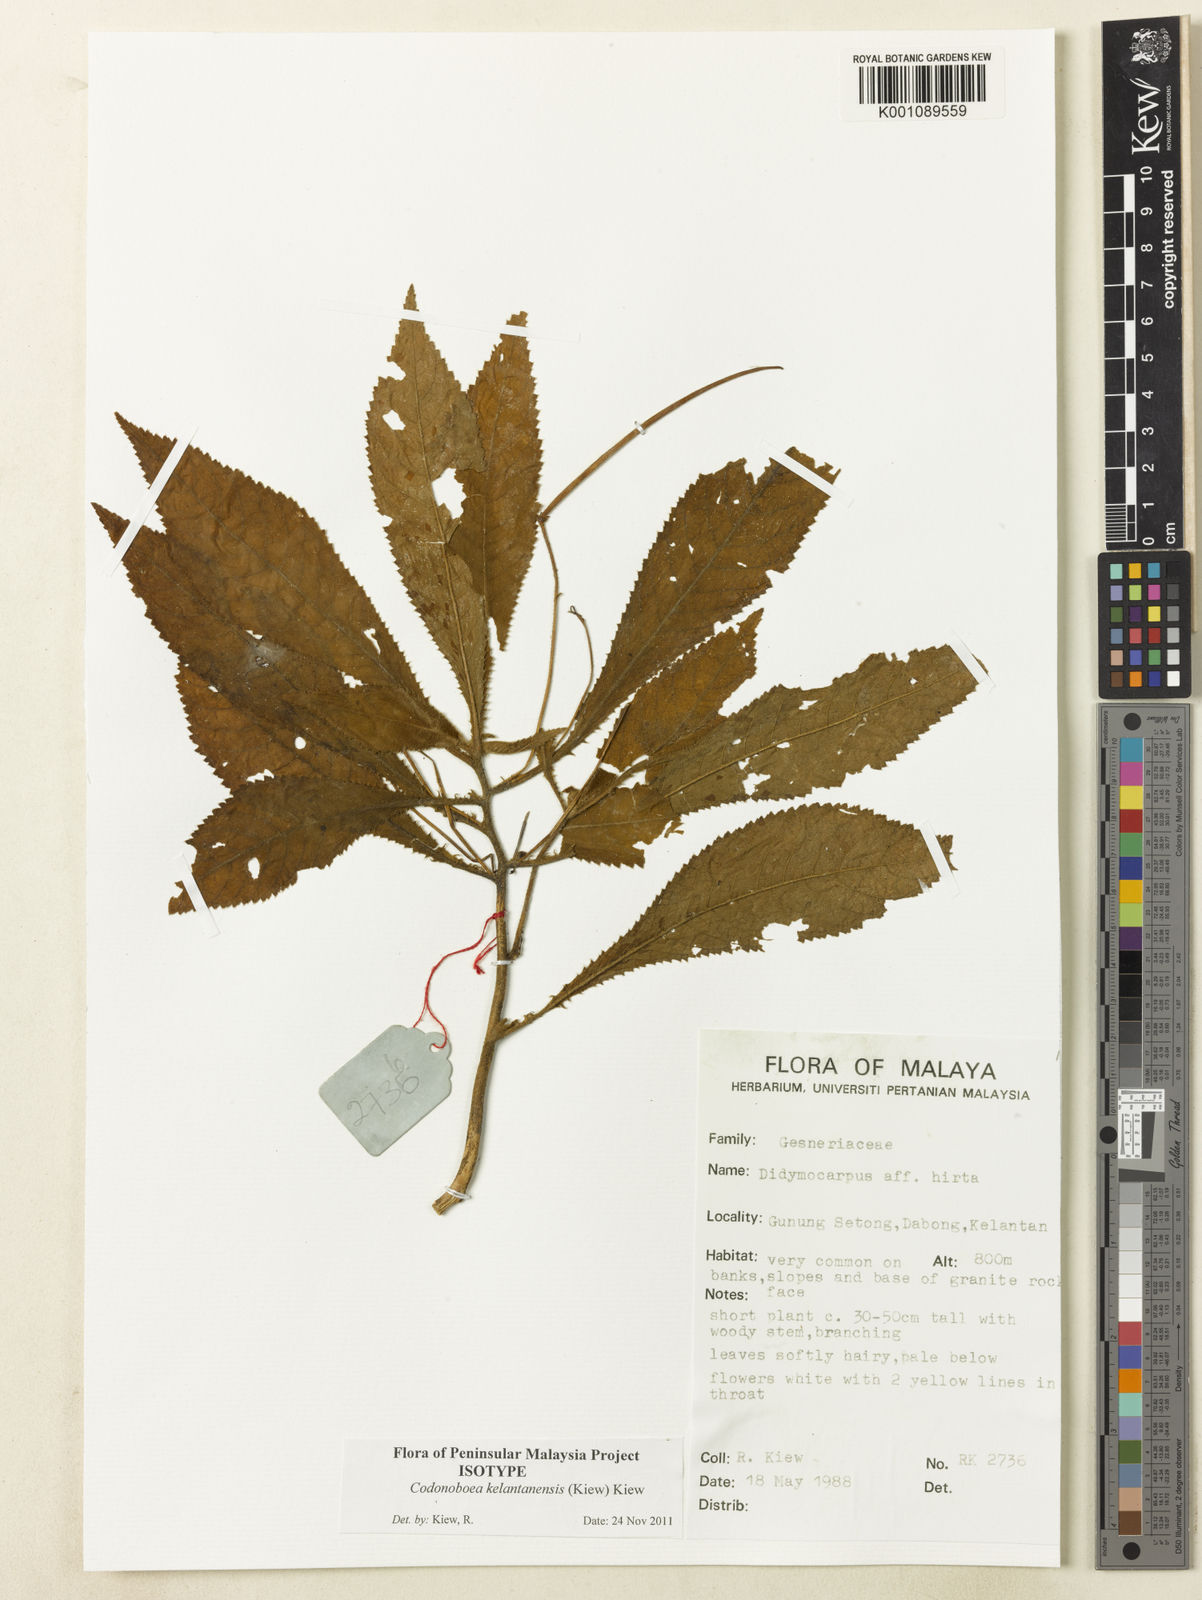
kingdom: Plantae
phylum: Tracheophyta
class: Magnoliopsida
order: Lamiales
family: Gesneriaceae
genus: Codonoboea
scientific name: Codonoboea kelantanensis
